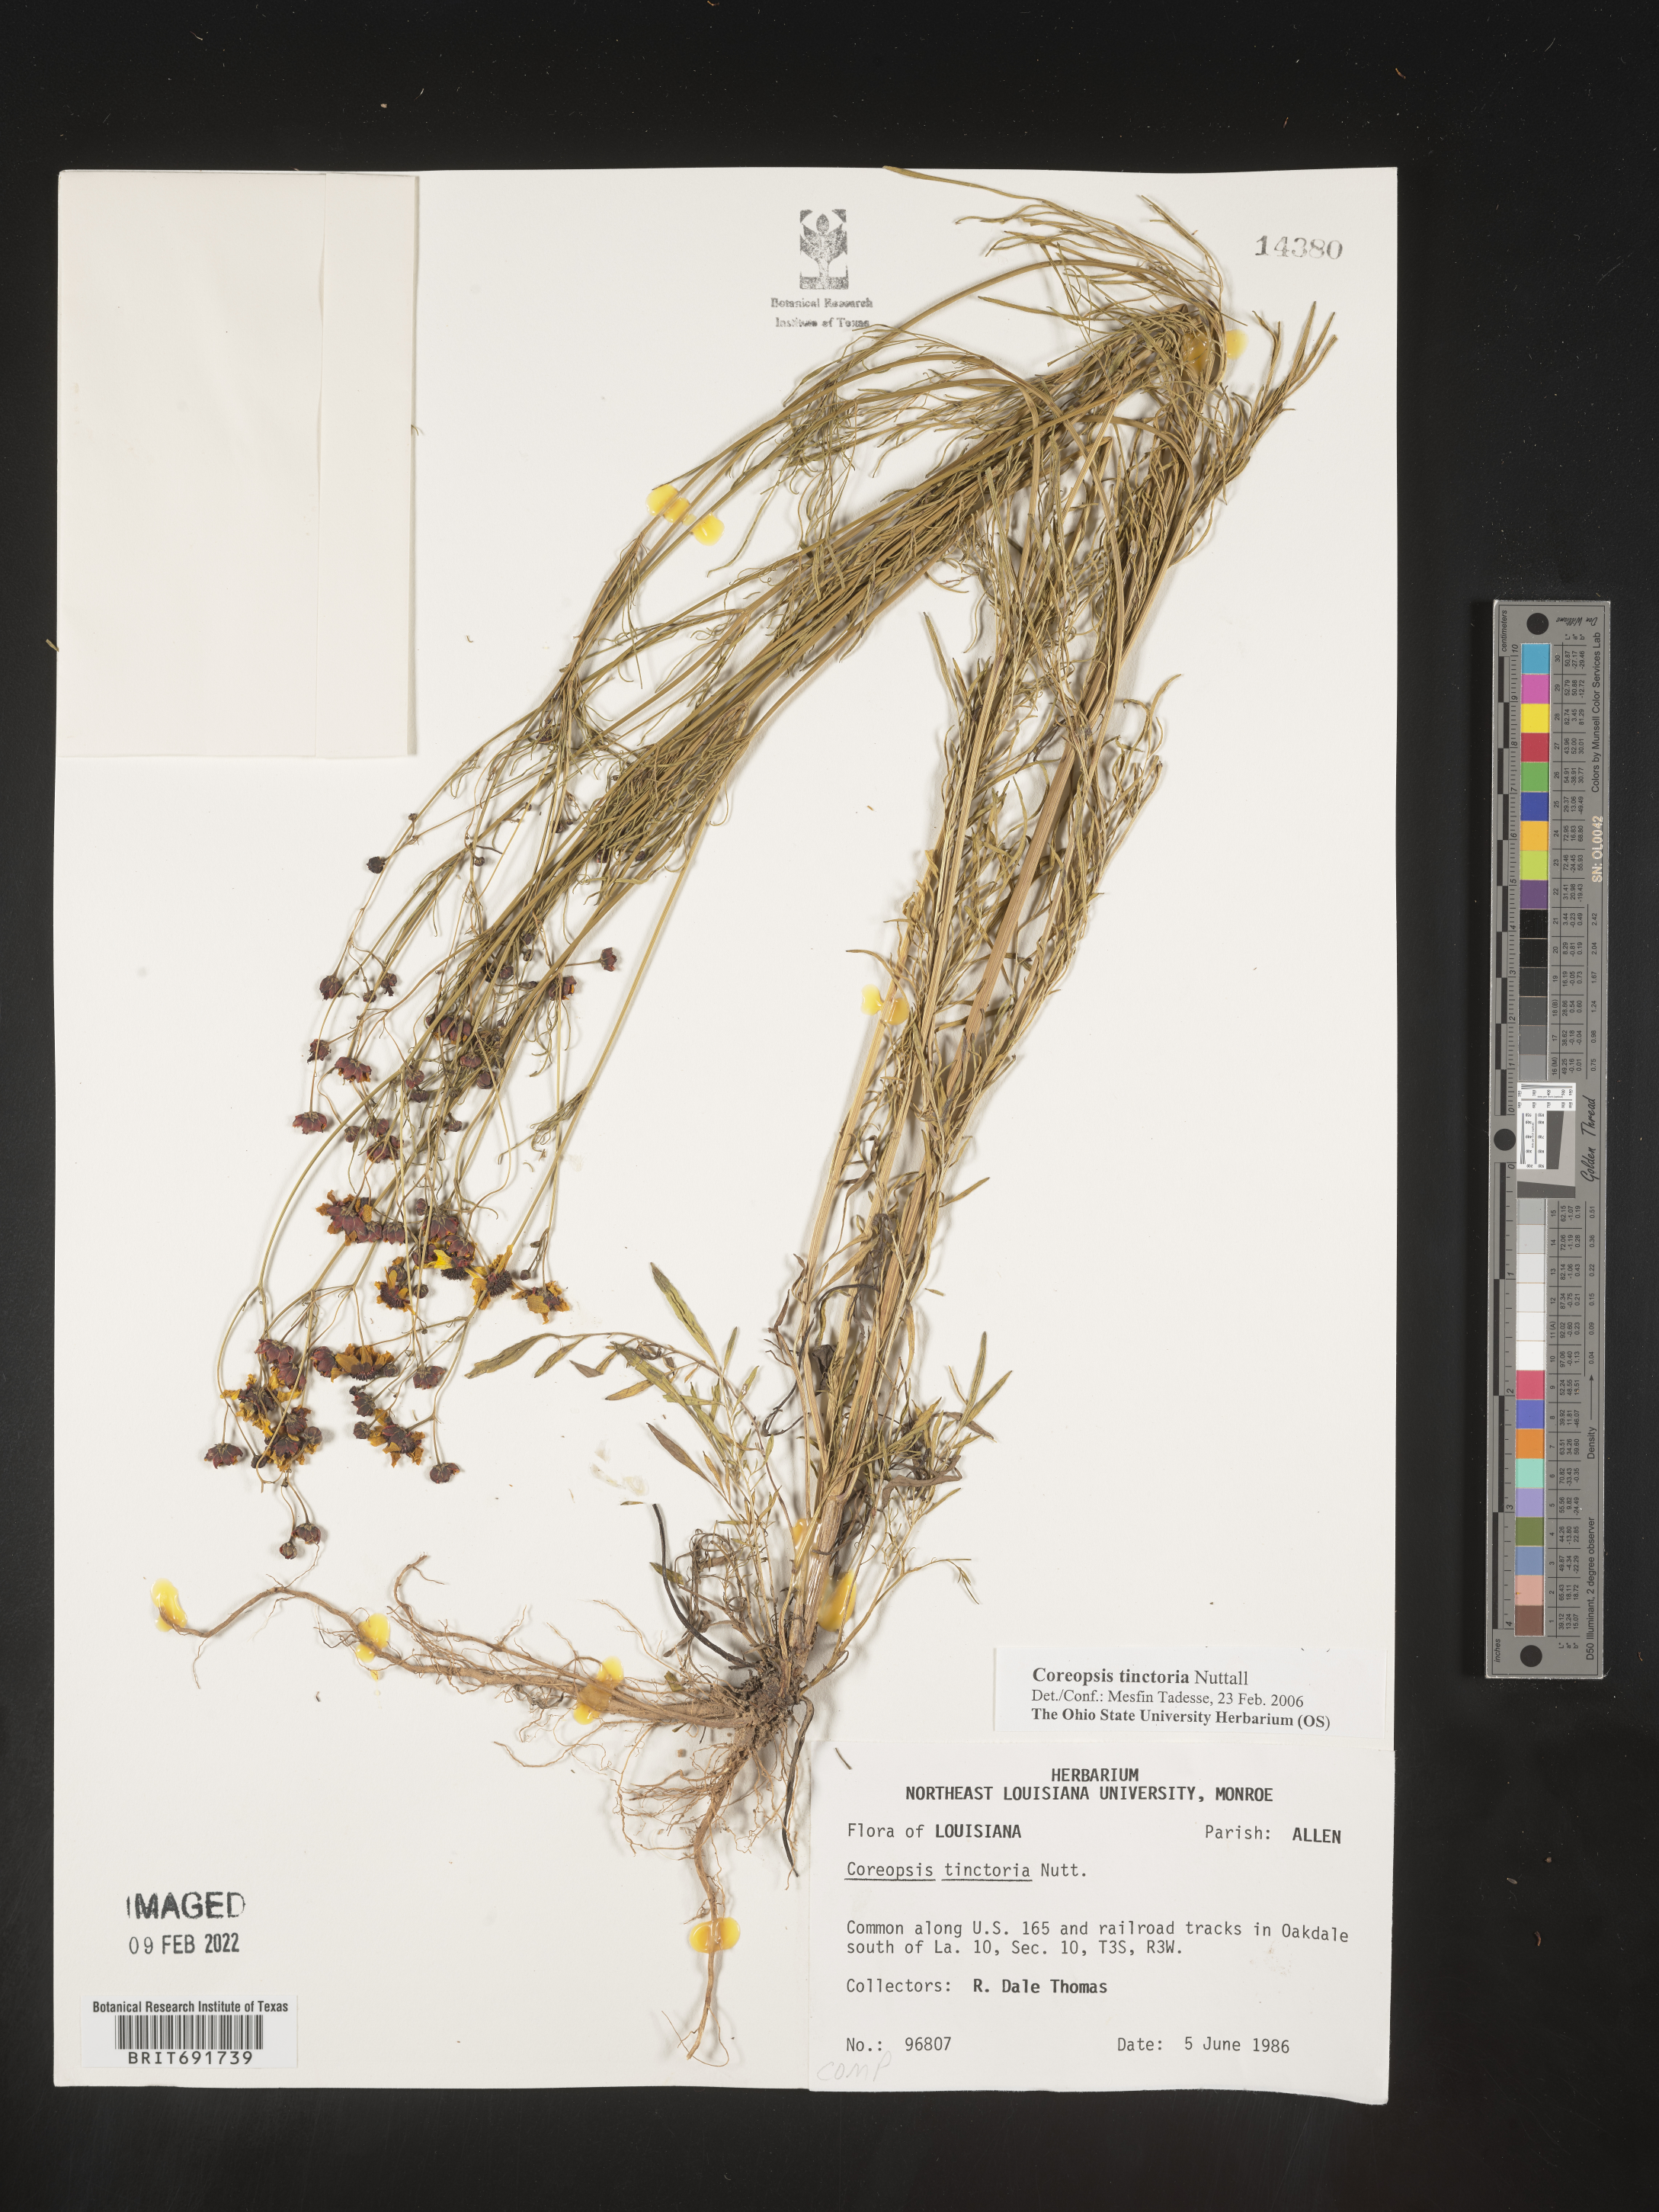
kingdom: Plantae
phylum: Tracheophyta
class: Magnoliopsida
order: Asterales
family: Asteraceae
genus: Coreopsis
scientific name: Coreopsis tinctoria
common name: Garden tickseed
